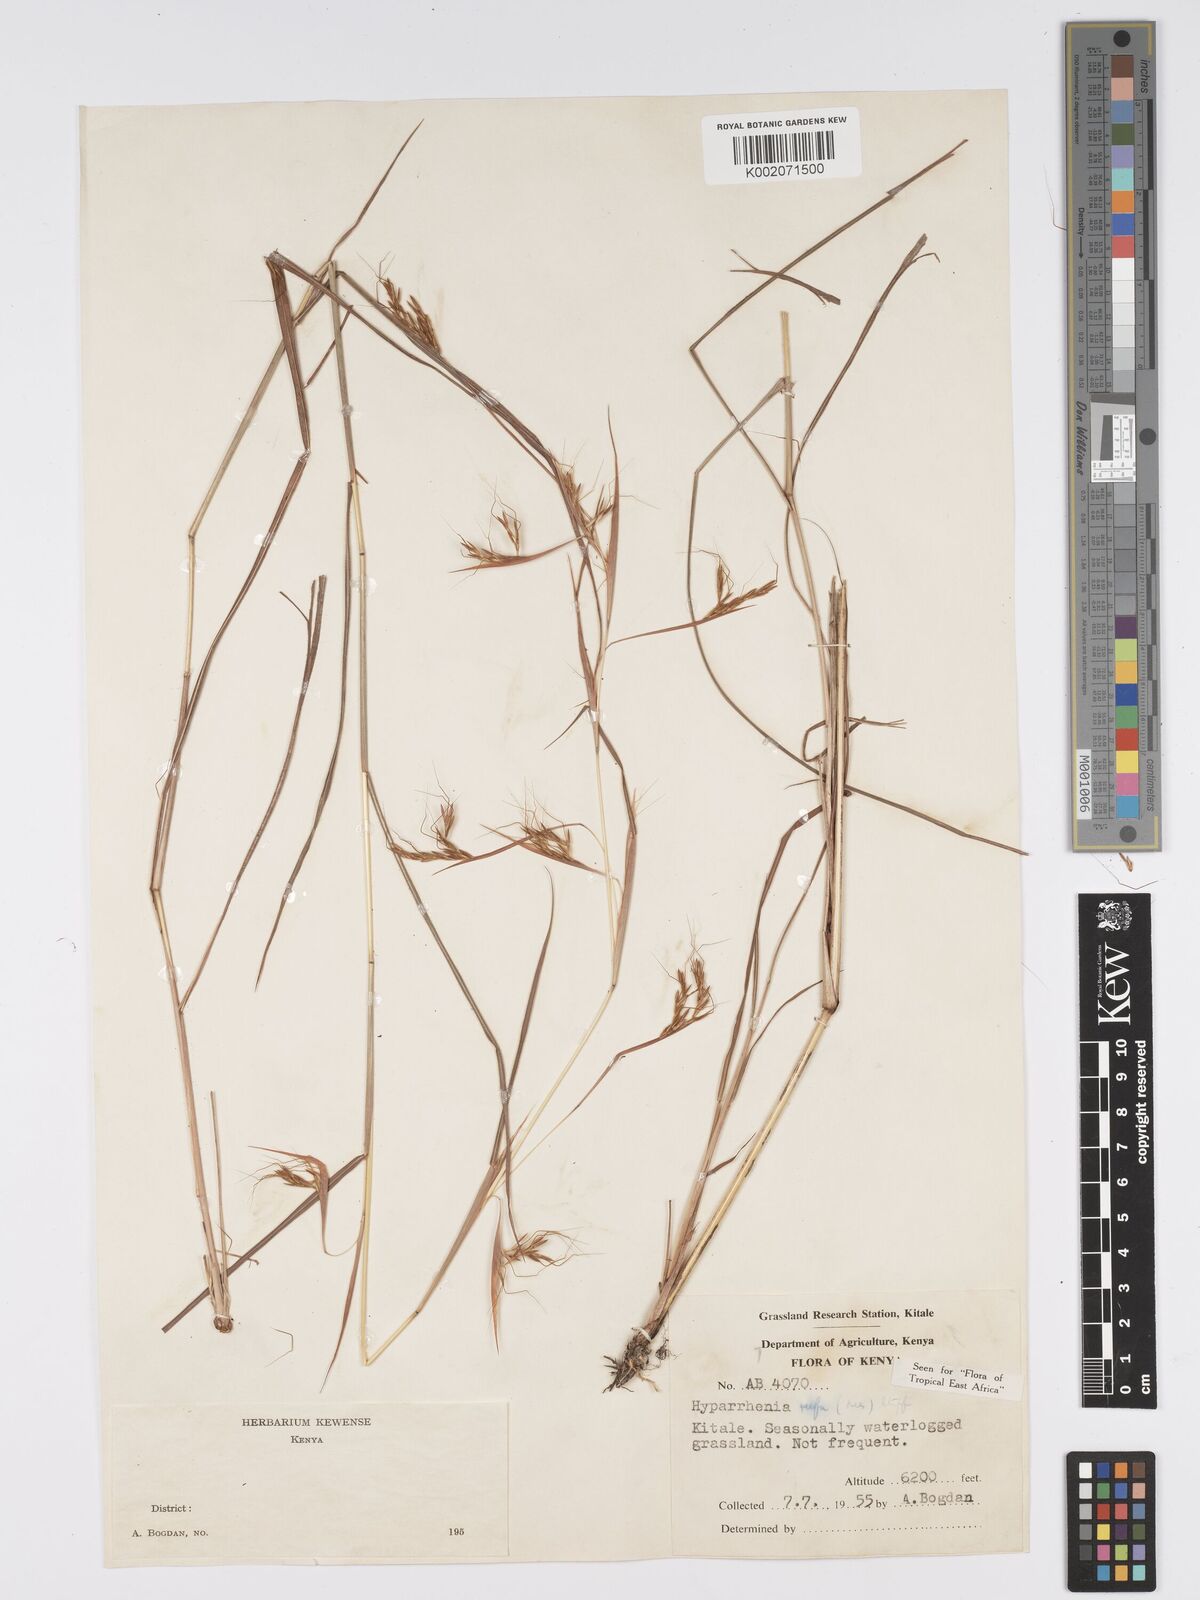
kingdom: Plantae
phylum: Tracheophyta
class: Liliopsida
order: Poales
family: Poaceae
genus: Hyparrhenia
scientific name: Hyparrhenia rufa
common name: Jaraguagrass
